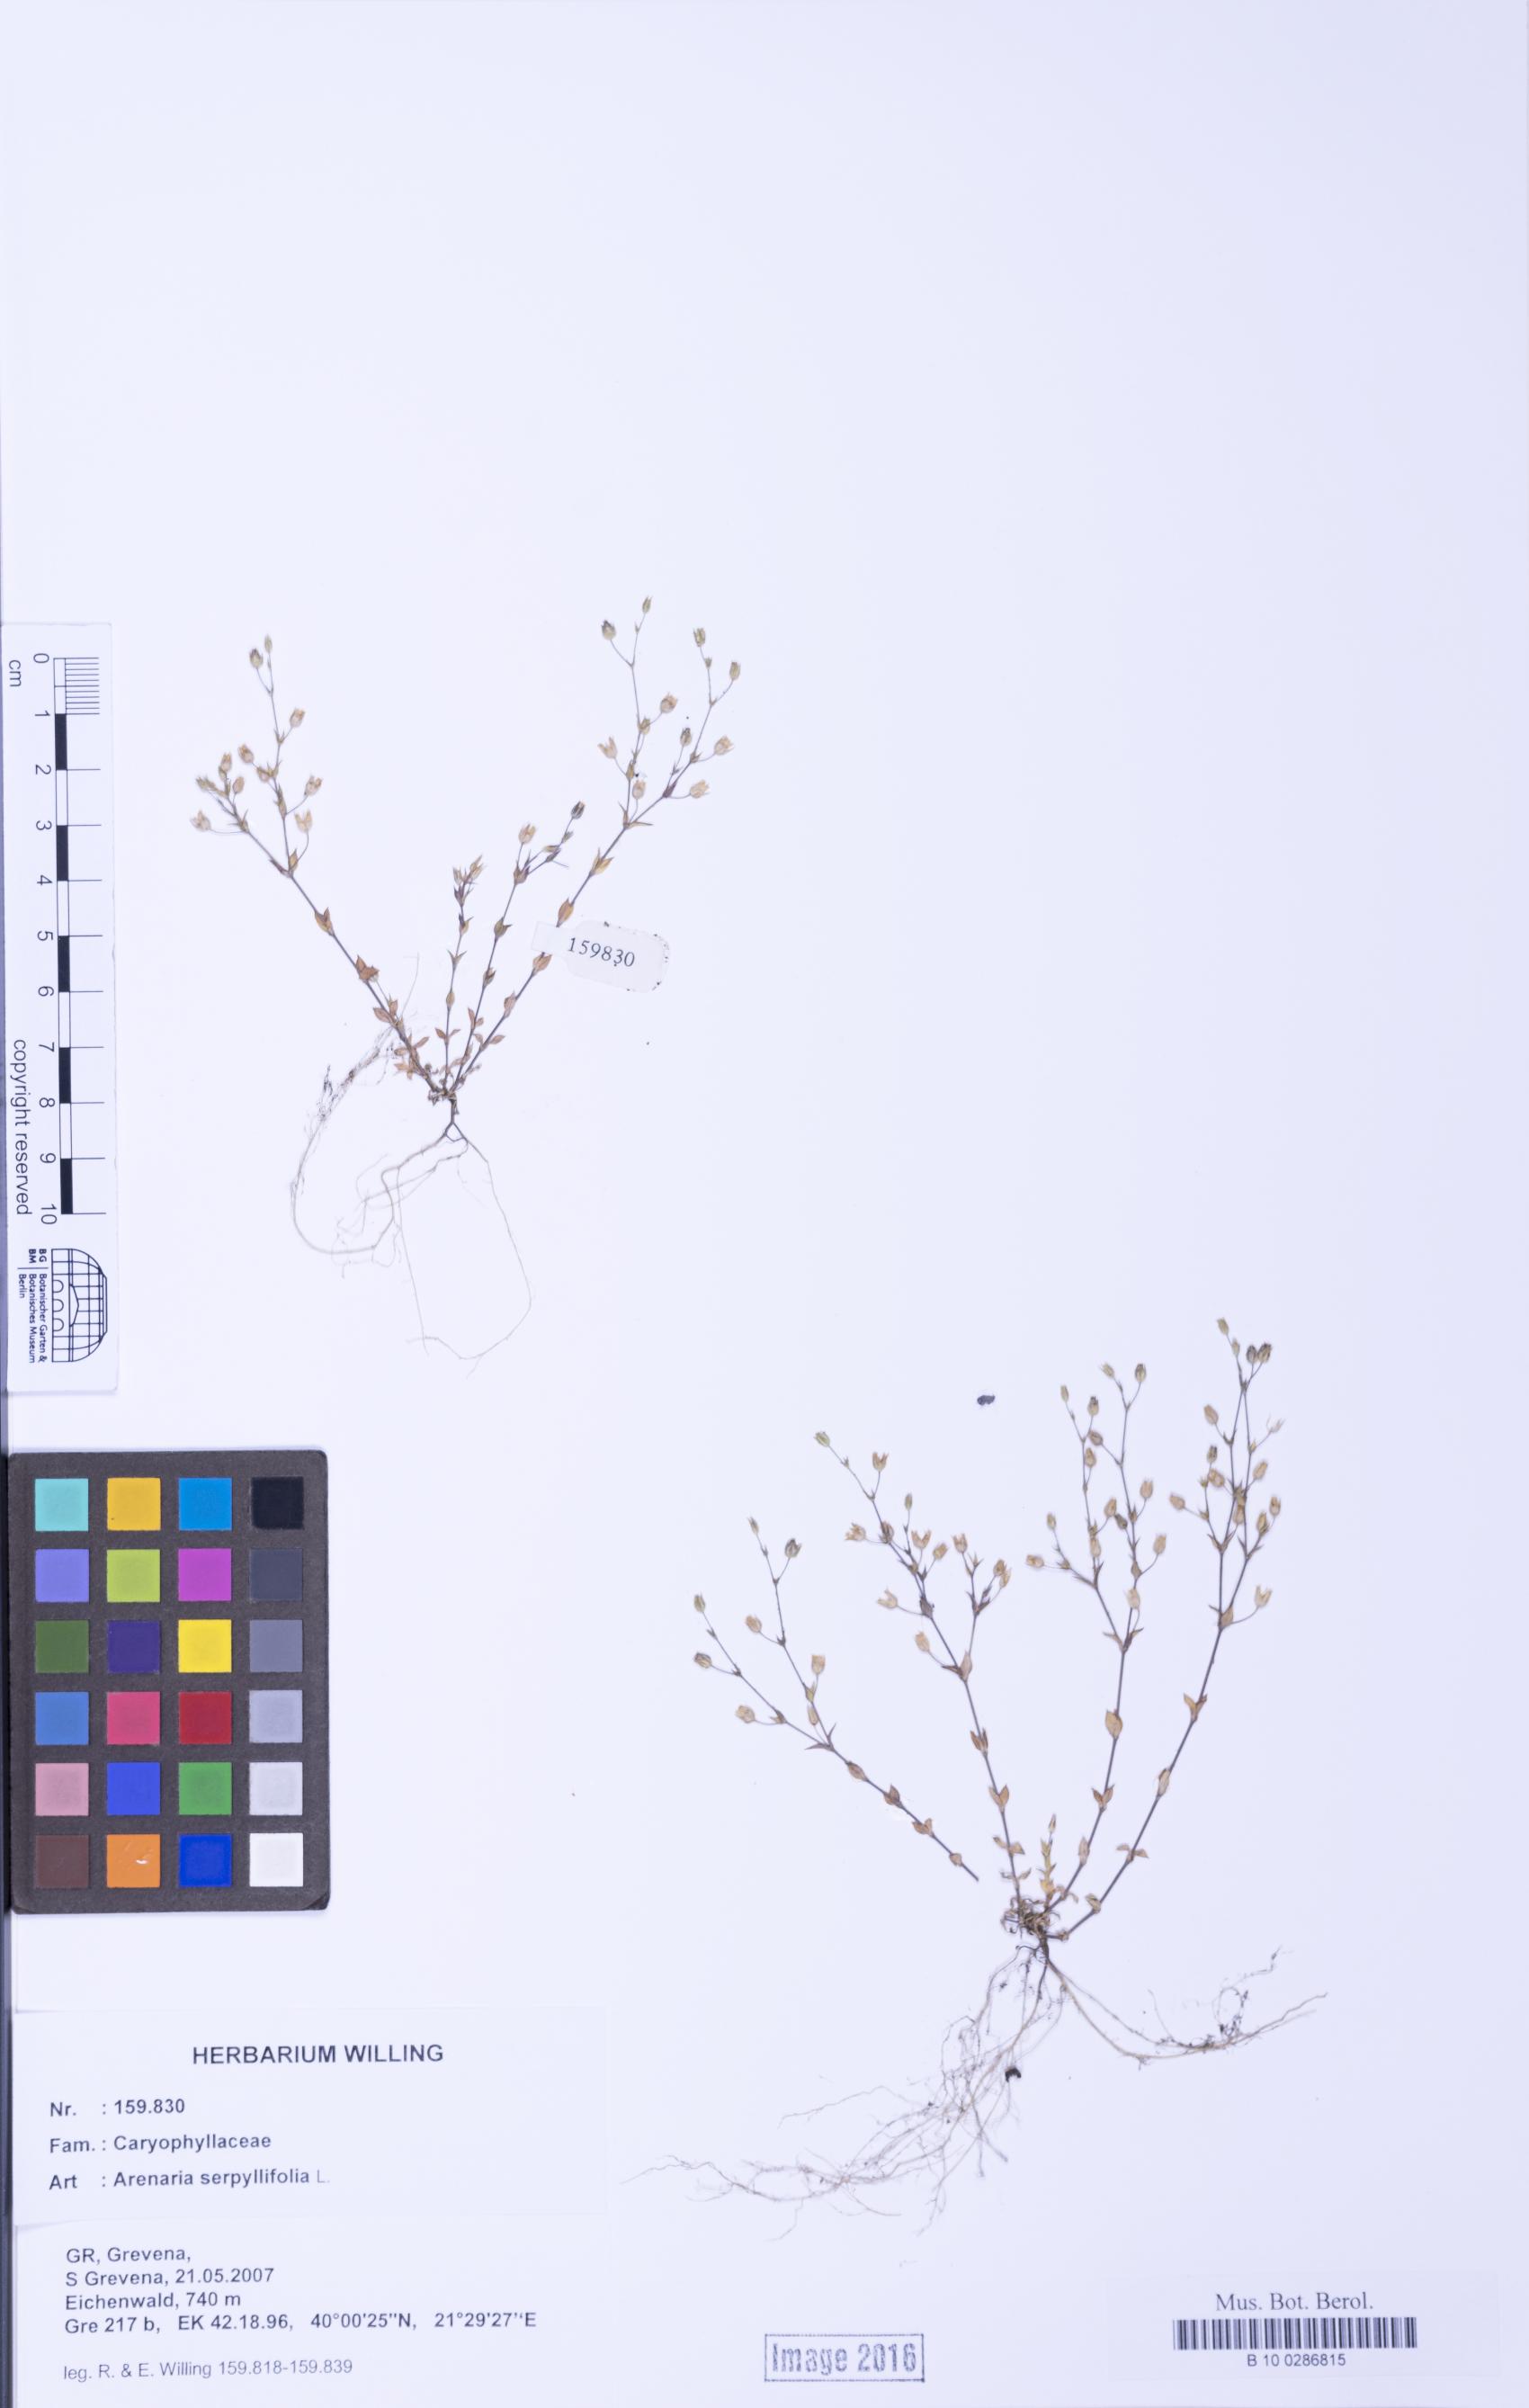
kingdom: Plantae
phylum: Tracheophyta
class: Magnoliopsida
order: Caryophyllales
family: Caryophyllaceae
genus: Arenaria
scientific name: Arenaria serpyllifolia
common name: Thyme-leaved sandwort
